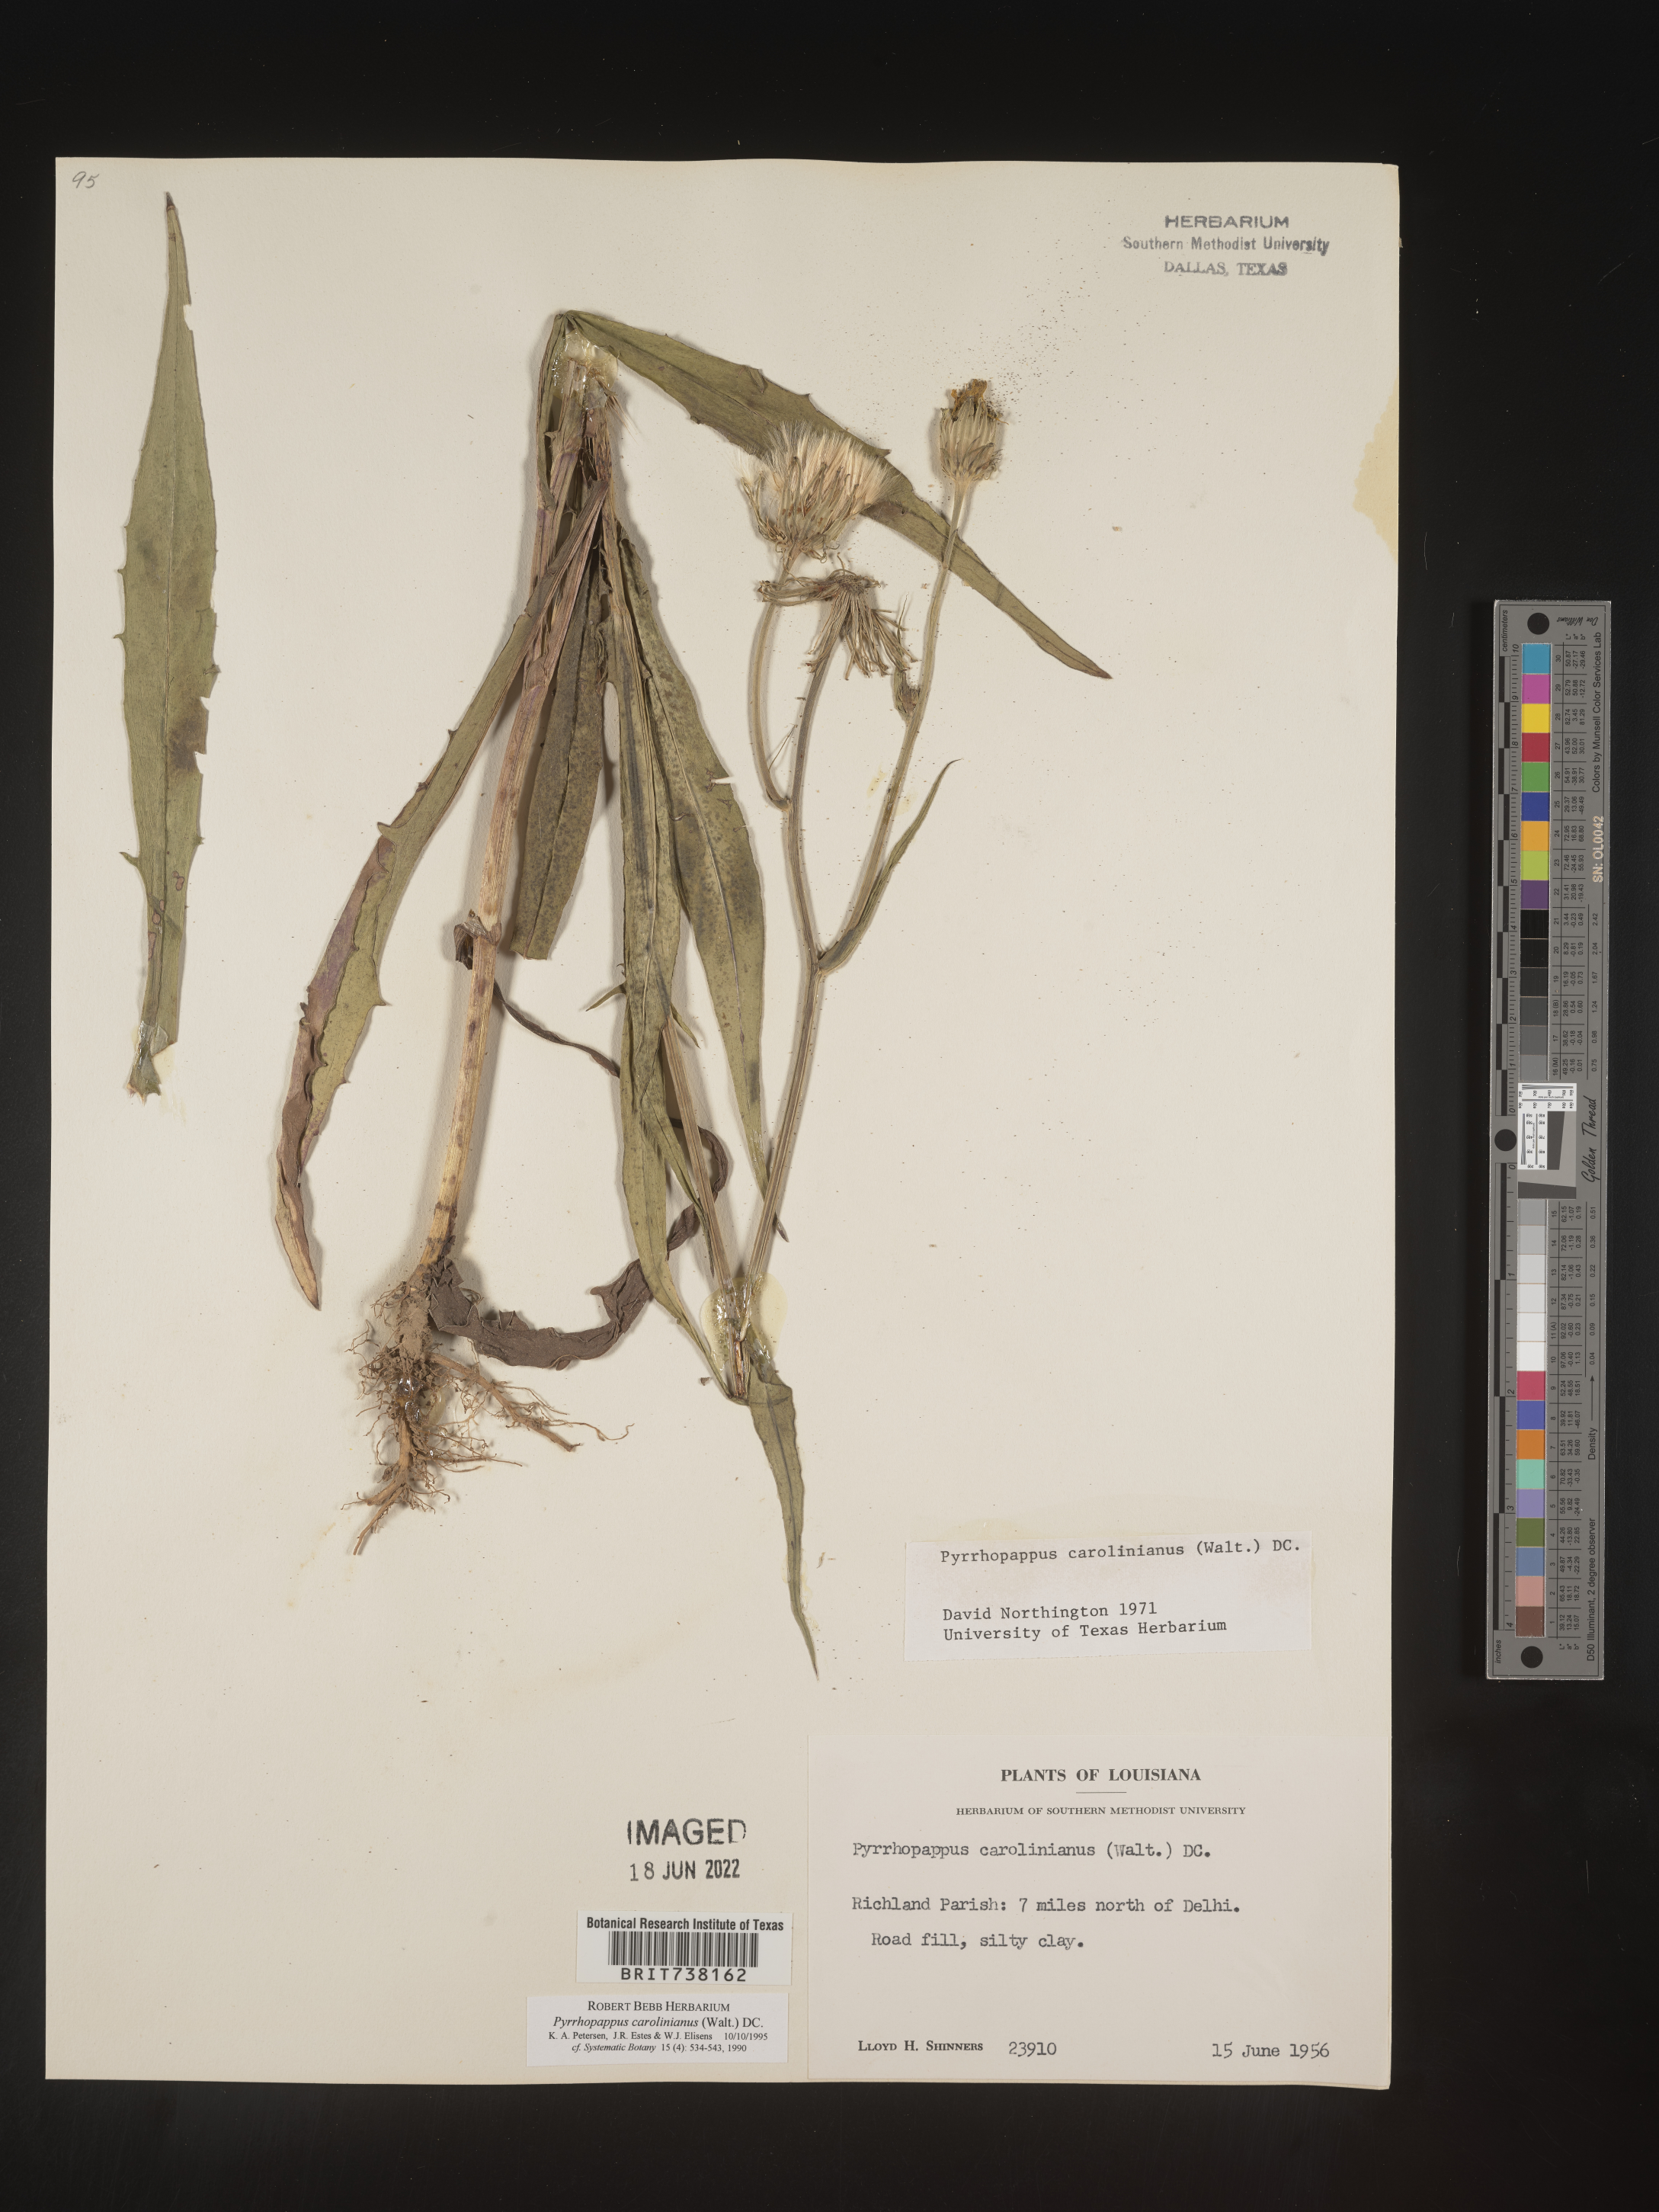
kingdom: Plantae
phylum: Tracheophyta
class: Magnoliopsida
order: Asterales
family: Asteraceae
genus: Pyrrhopappus
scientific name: Pyrrhopappus carolinianus
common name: Carolina desert-chicory
